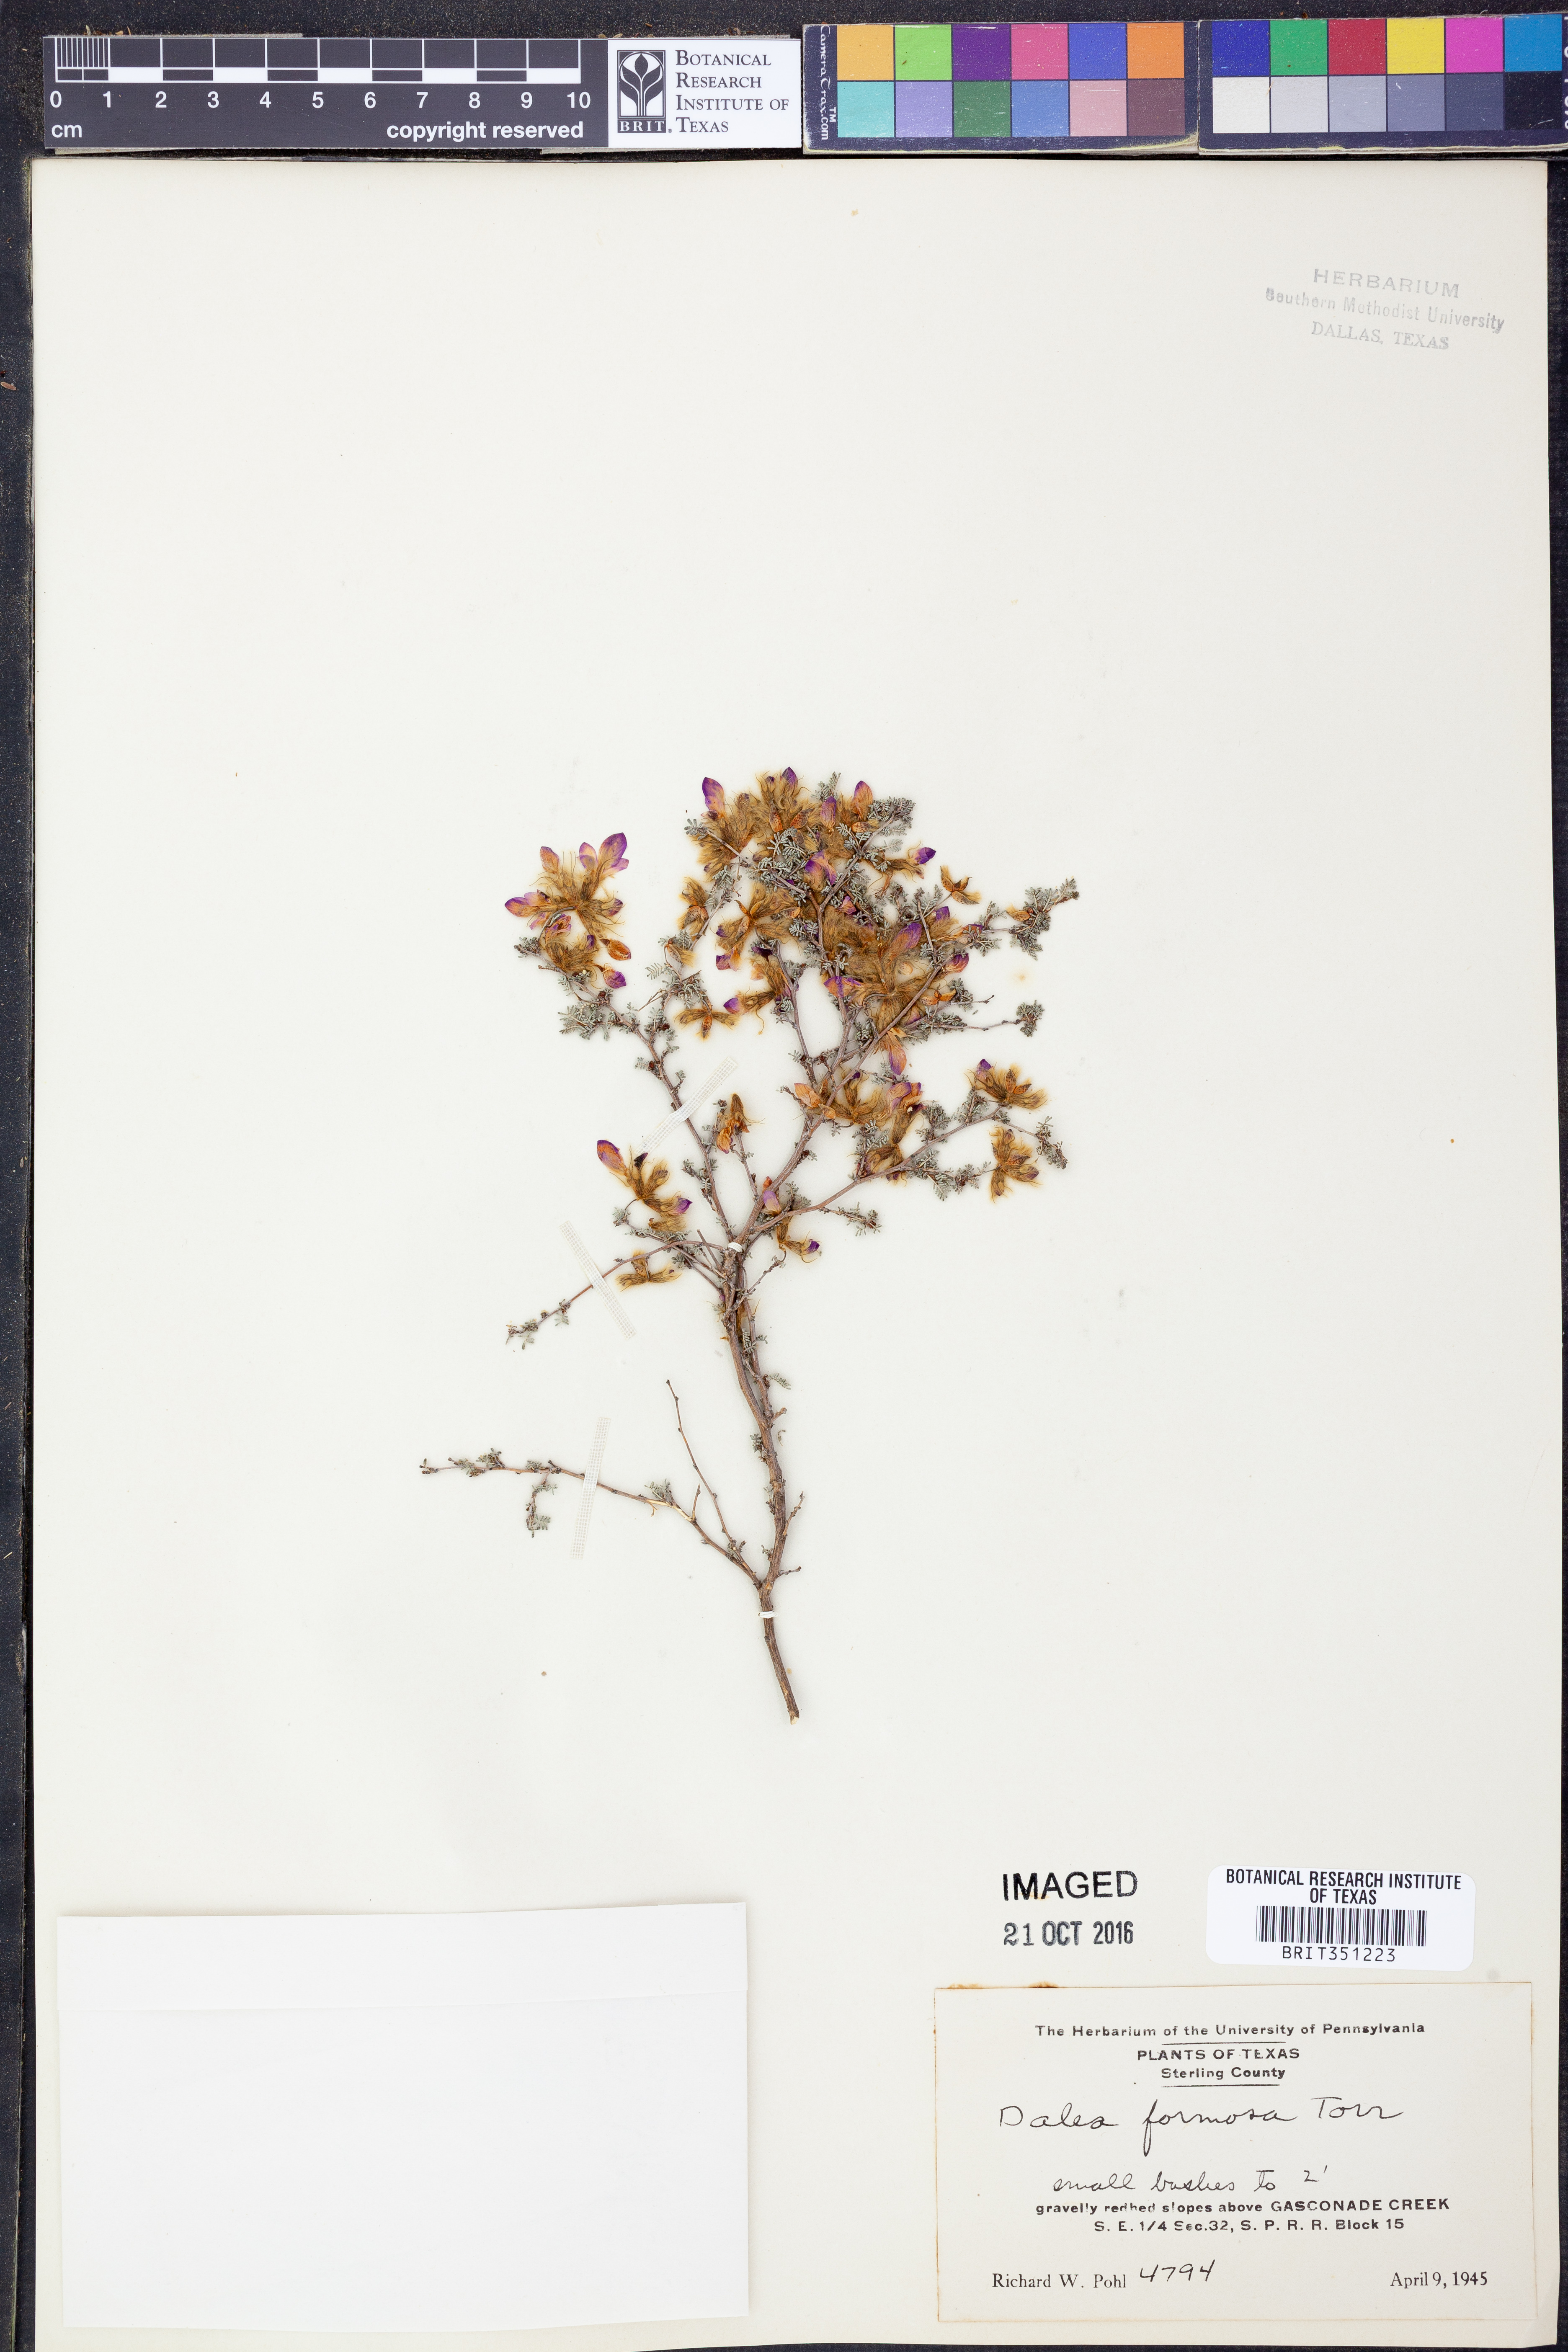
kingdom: Plantae
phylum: Tracheophyta
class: Magnoliopsida
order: Fabales
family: Fabaceae
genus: Dalea
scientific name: Dalea formosa
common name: Feather-plume dalea
